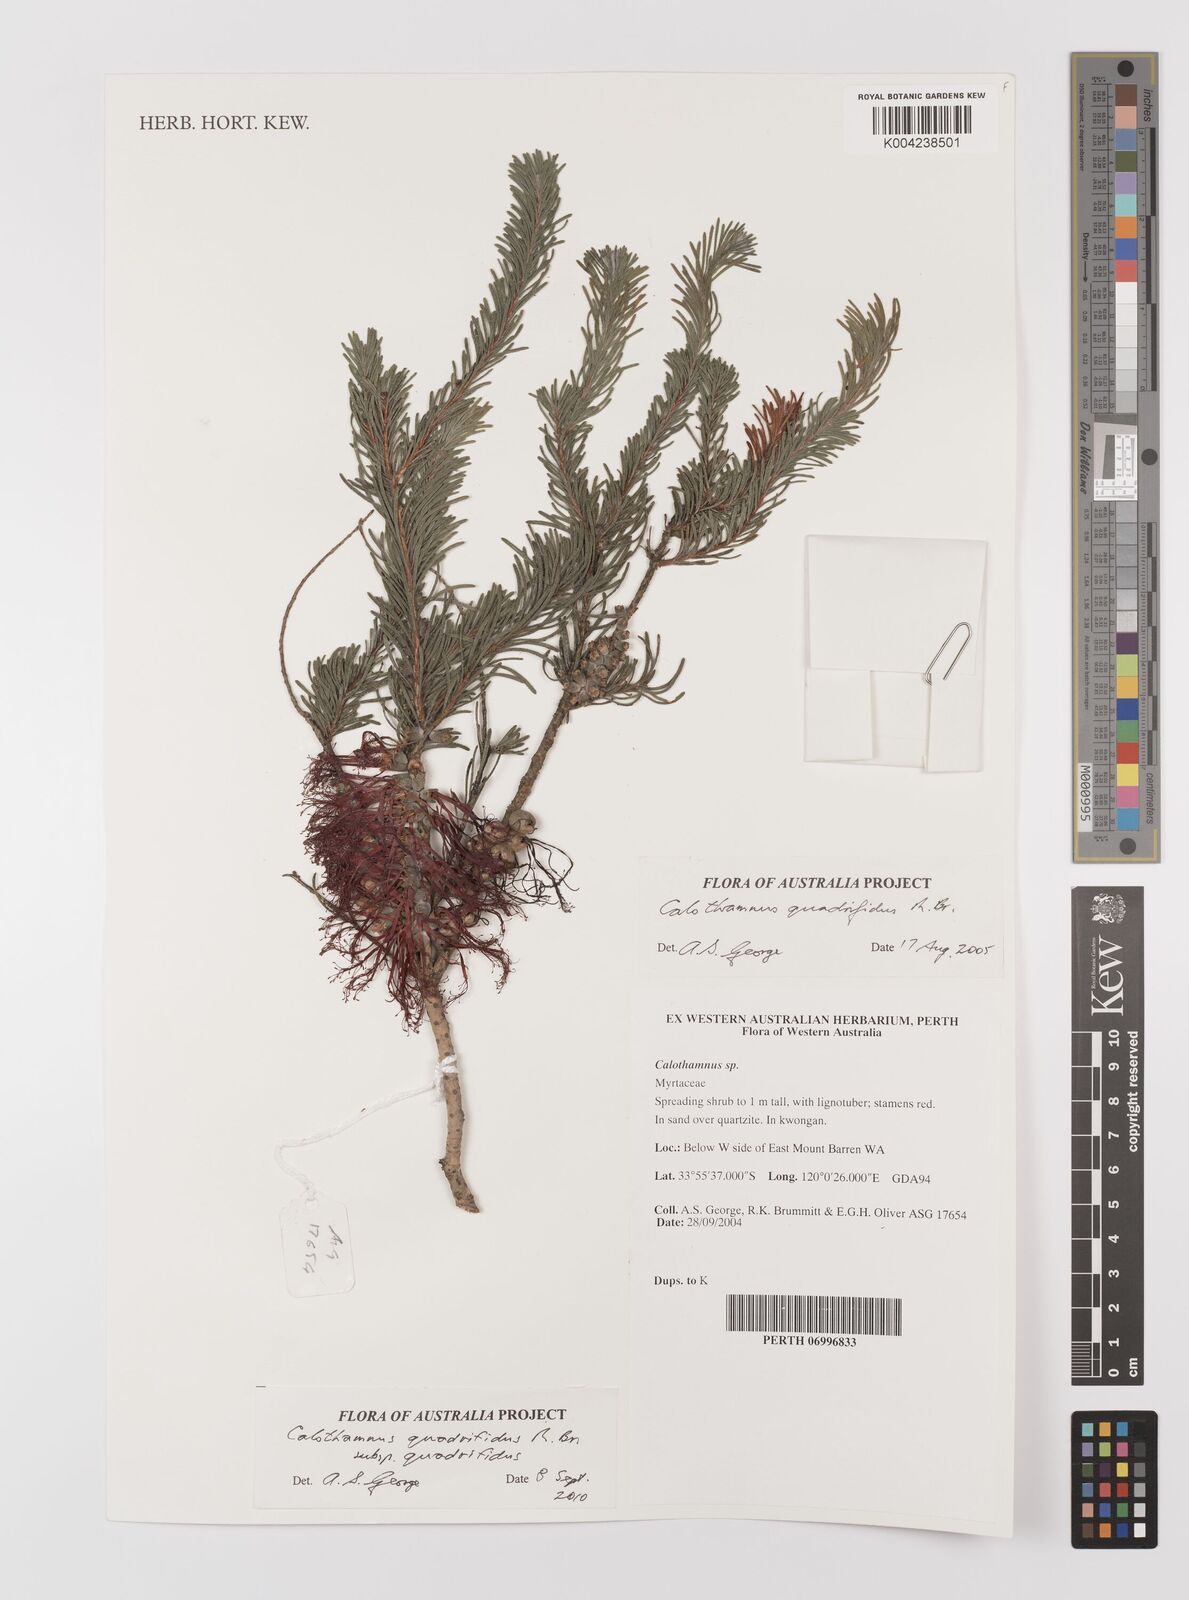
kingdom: Plantae
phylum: Tracheophyta
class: Magnoliopsida
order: Myrtales
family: Myrtaceae
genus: Melaleuca
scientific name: Melaleuca quadrifida
